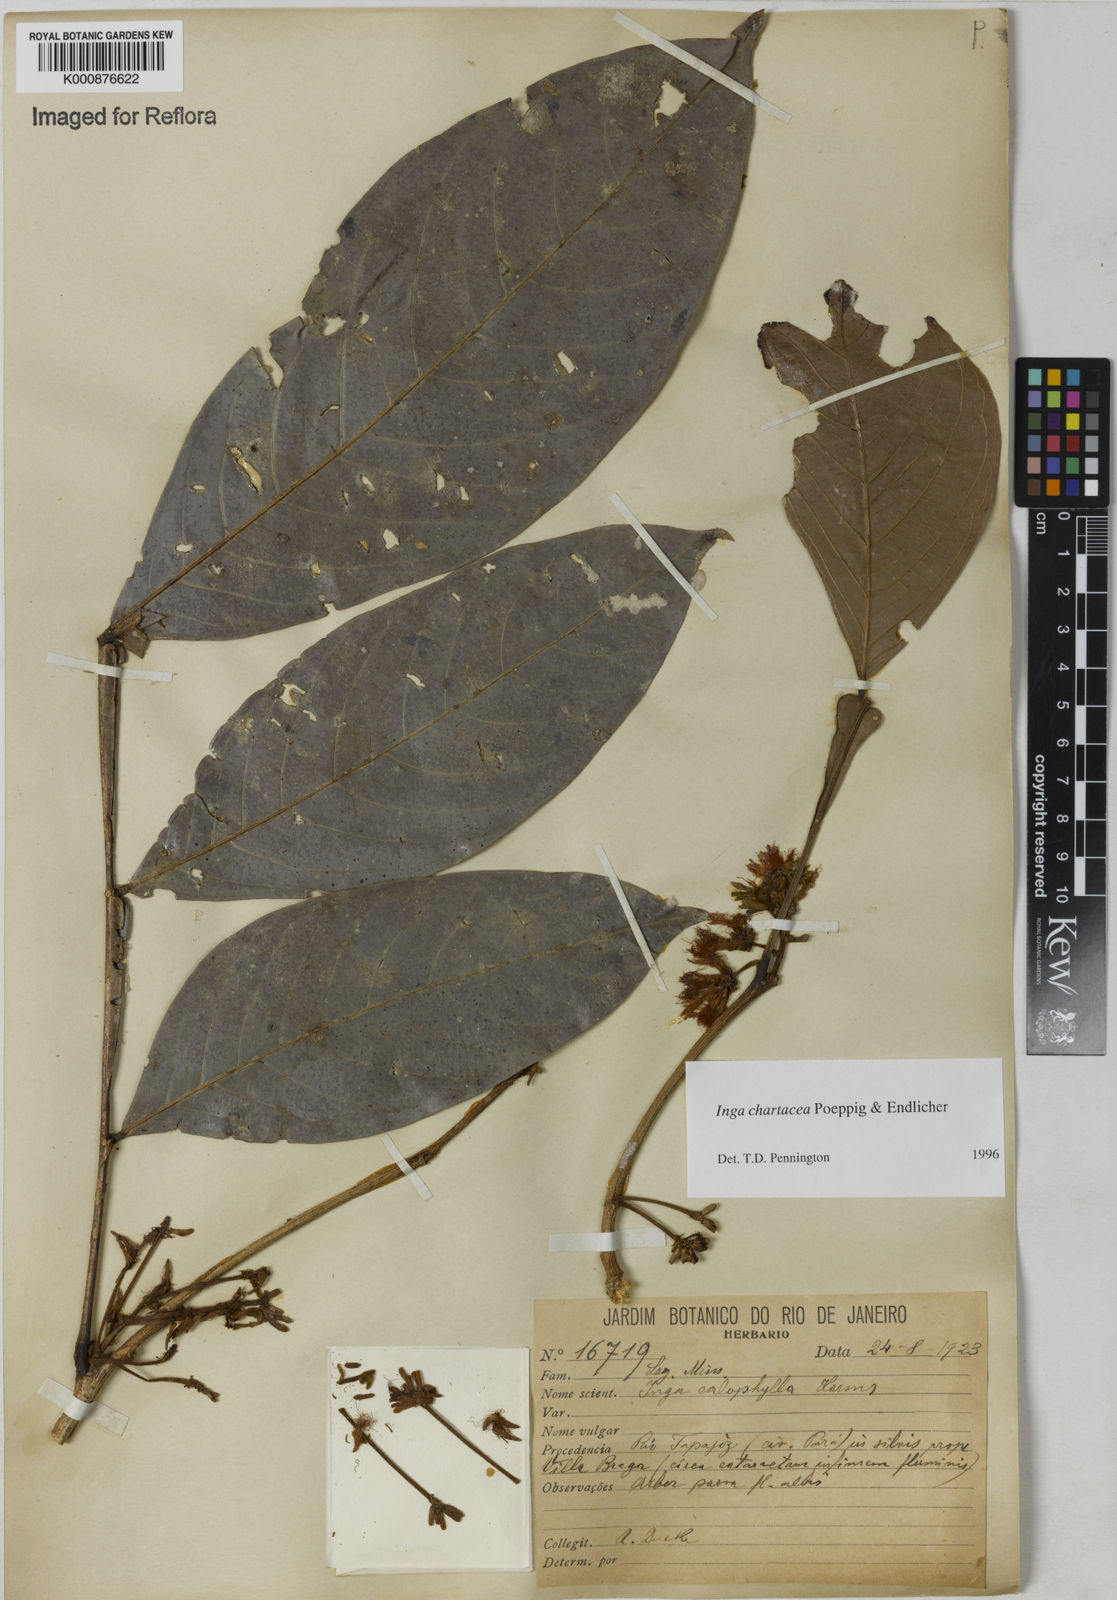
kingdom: Plantae
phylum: Tracheophyta
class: Magnoliopsida
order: Fabales
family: Fabaceae
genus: Inga
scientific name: Inga chartacea
